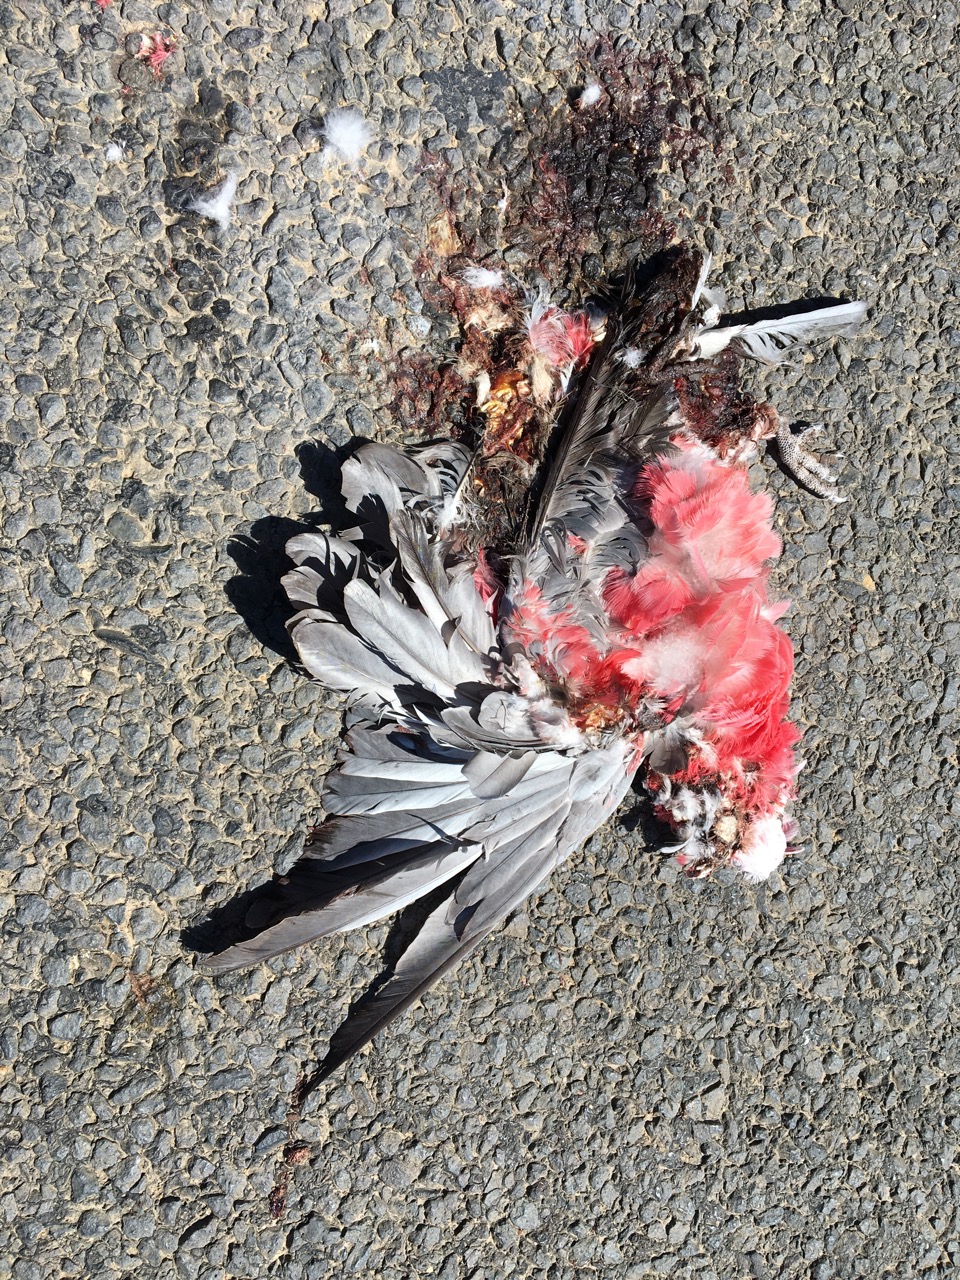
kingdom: Animalia
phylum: Chordata
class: Aves
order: Psittaciformes
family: Psittacidae
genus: Eolophus
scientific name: Eolophus roseicapilla
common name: Galah
